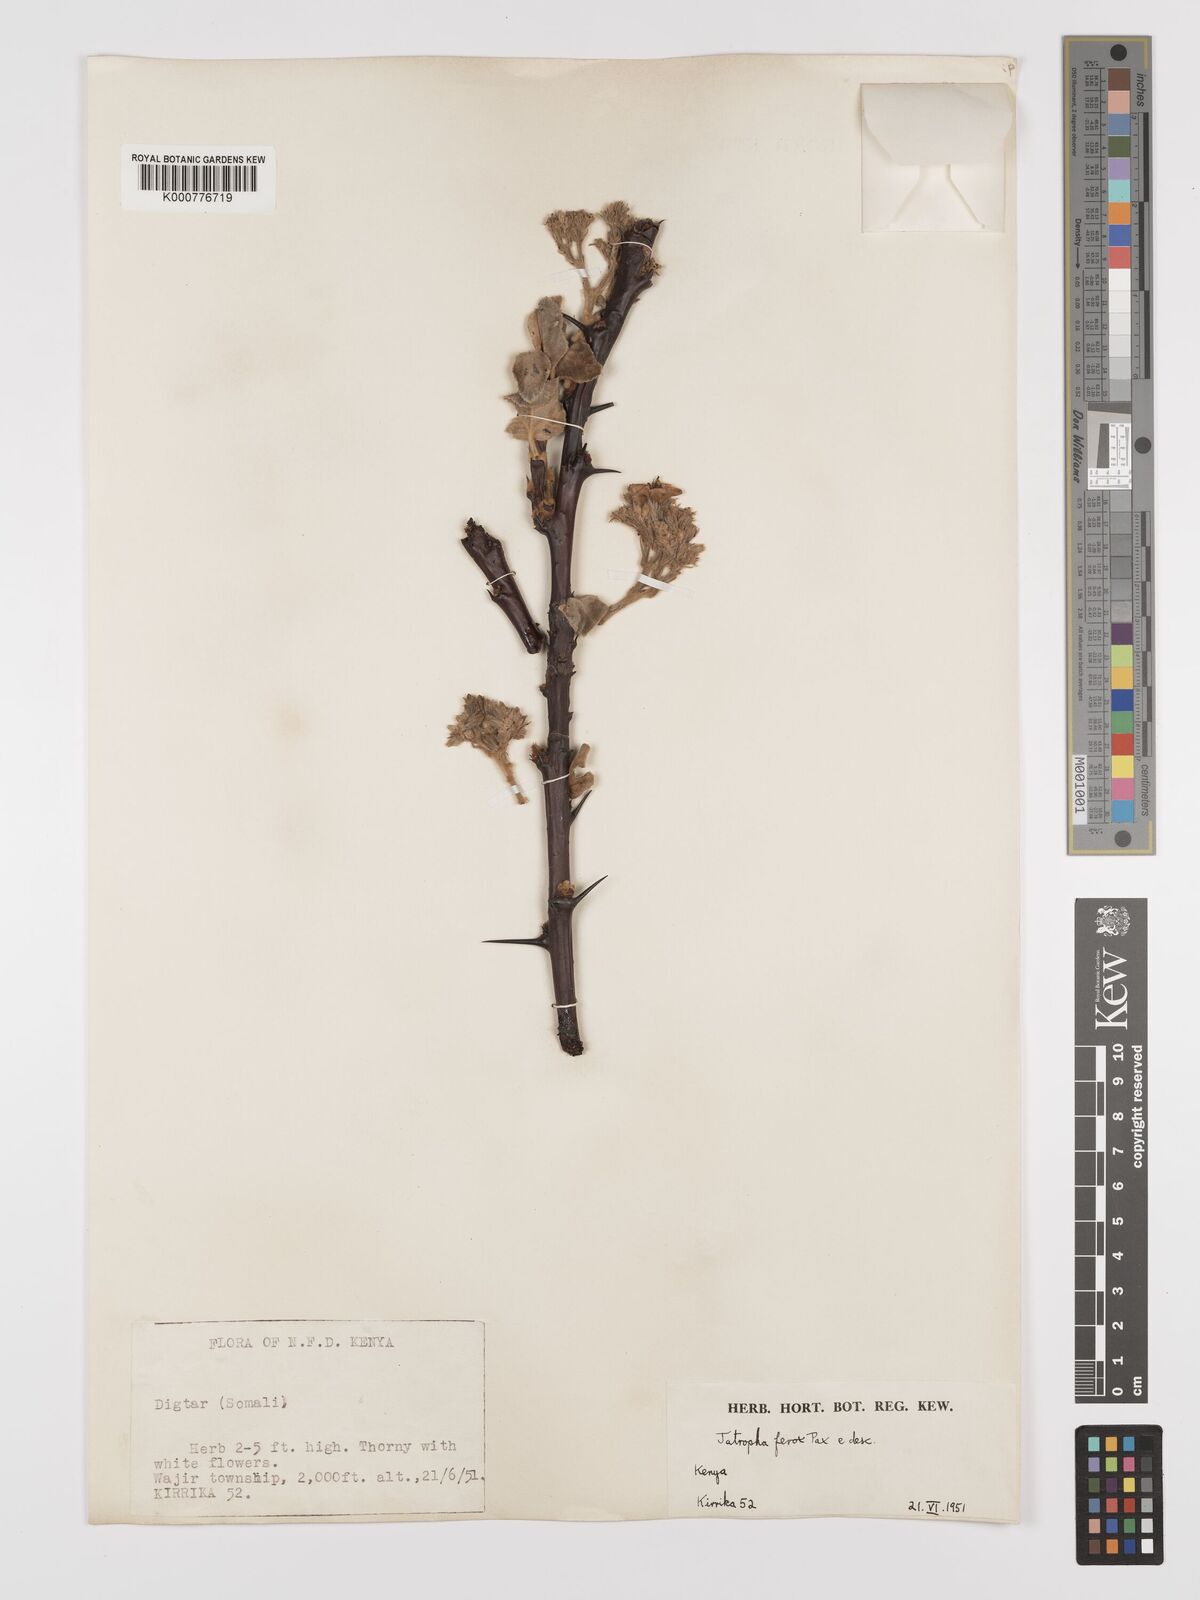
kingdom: Plantae
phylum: Tracheophyta
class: Magnoliopsida
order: Malpighiales
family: Euphorbiaceae
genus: Jatropha
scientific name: Jatropha dichtar
